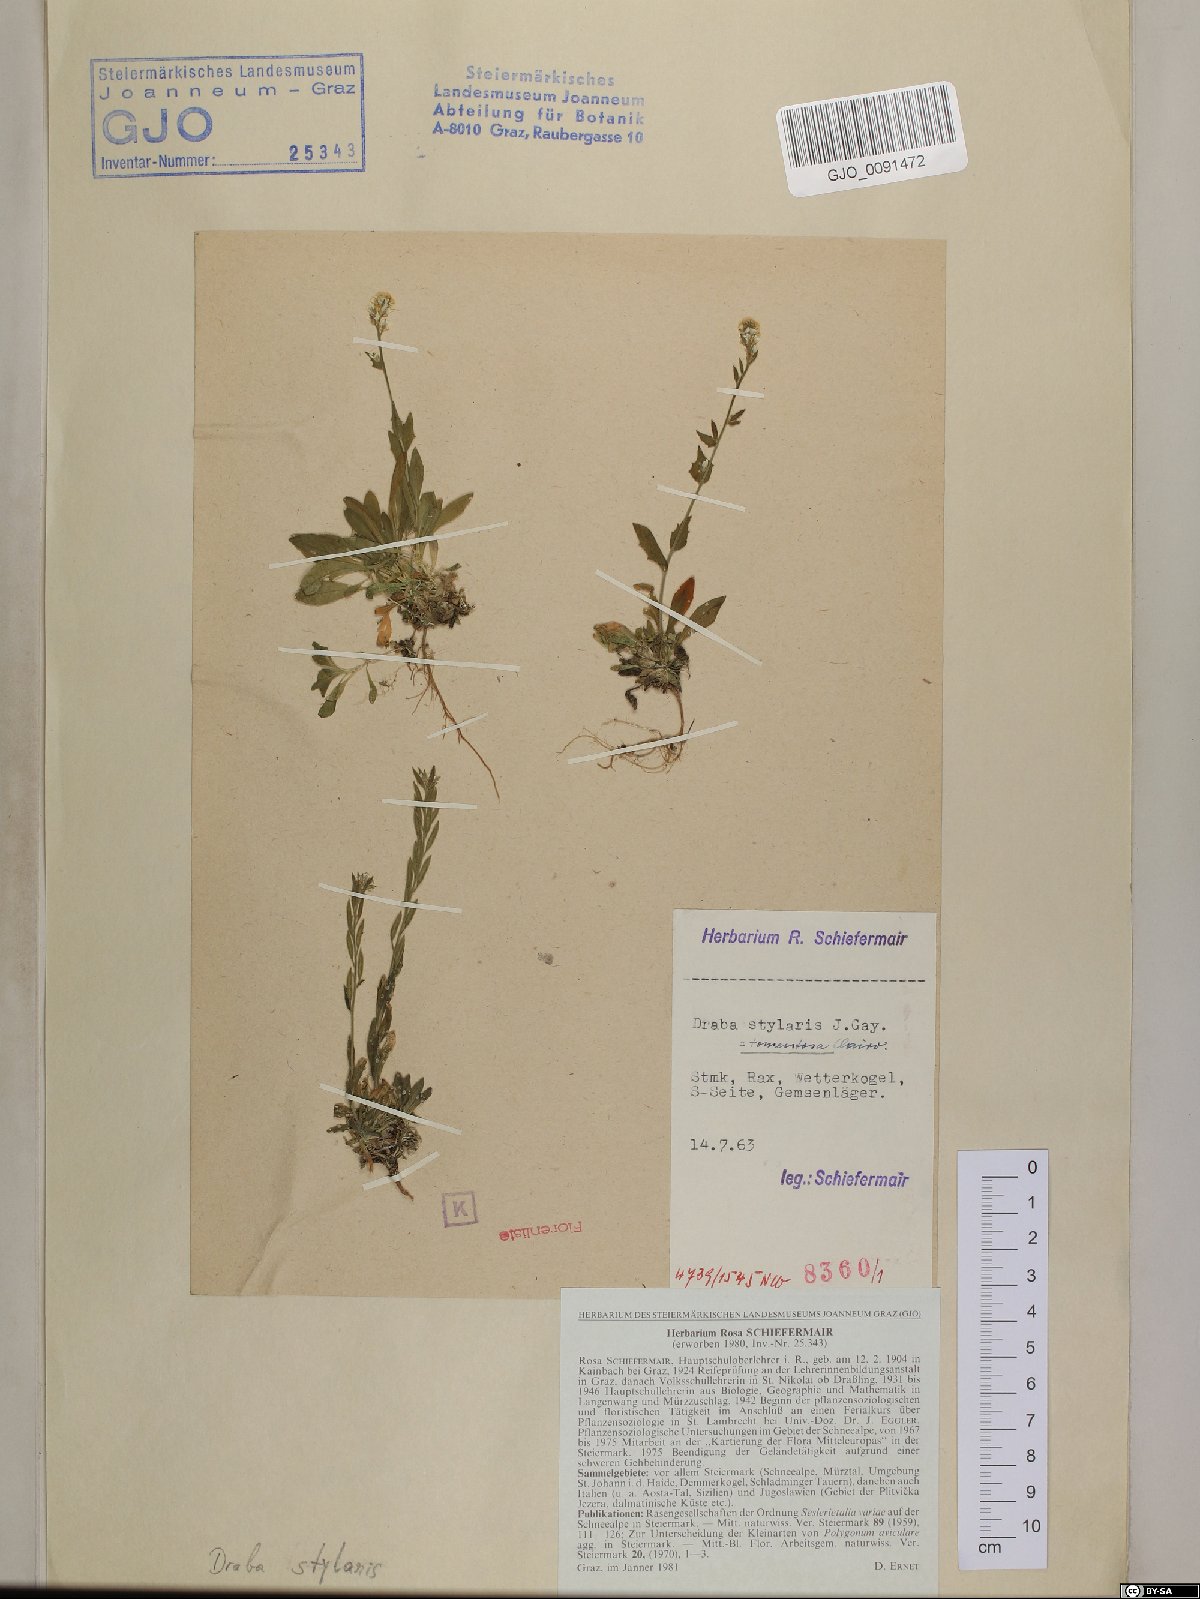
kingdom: Plantae
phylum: Tracheophyta
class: Magnoliopsida
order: Brassicales
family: Brassicaceae
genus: Draba
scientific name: Draba thomasii
